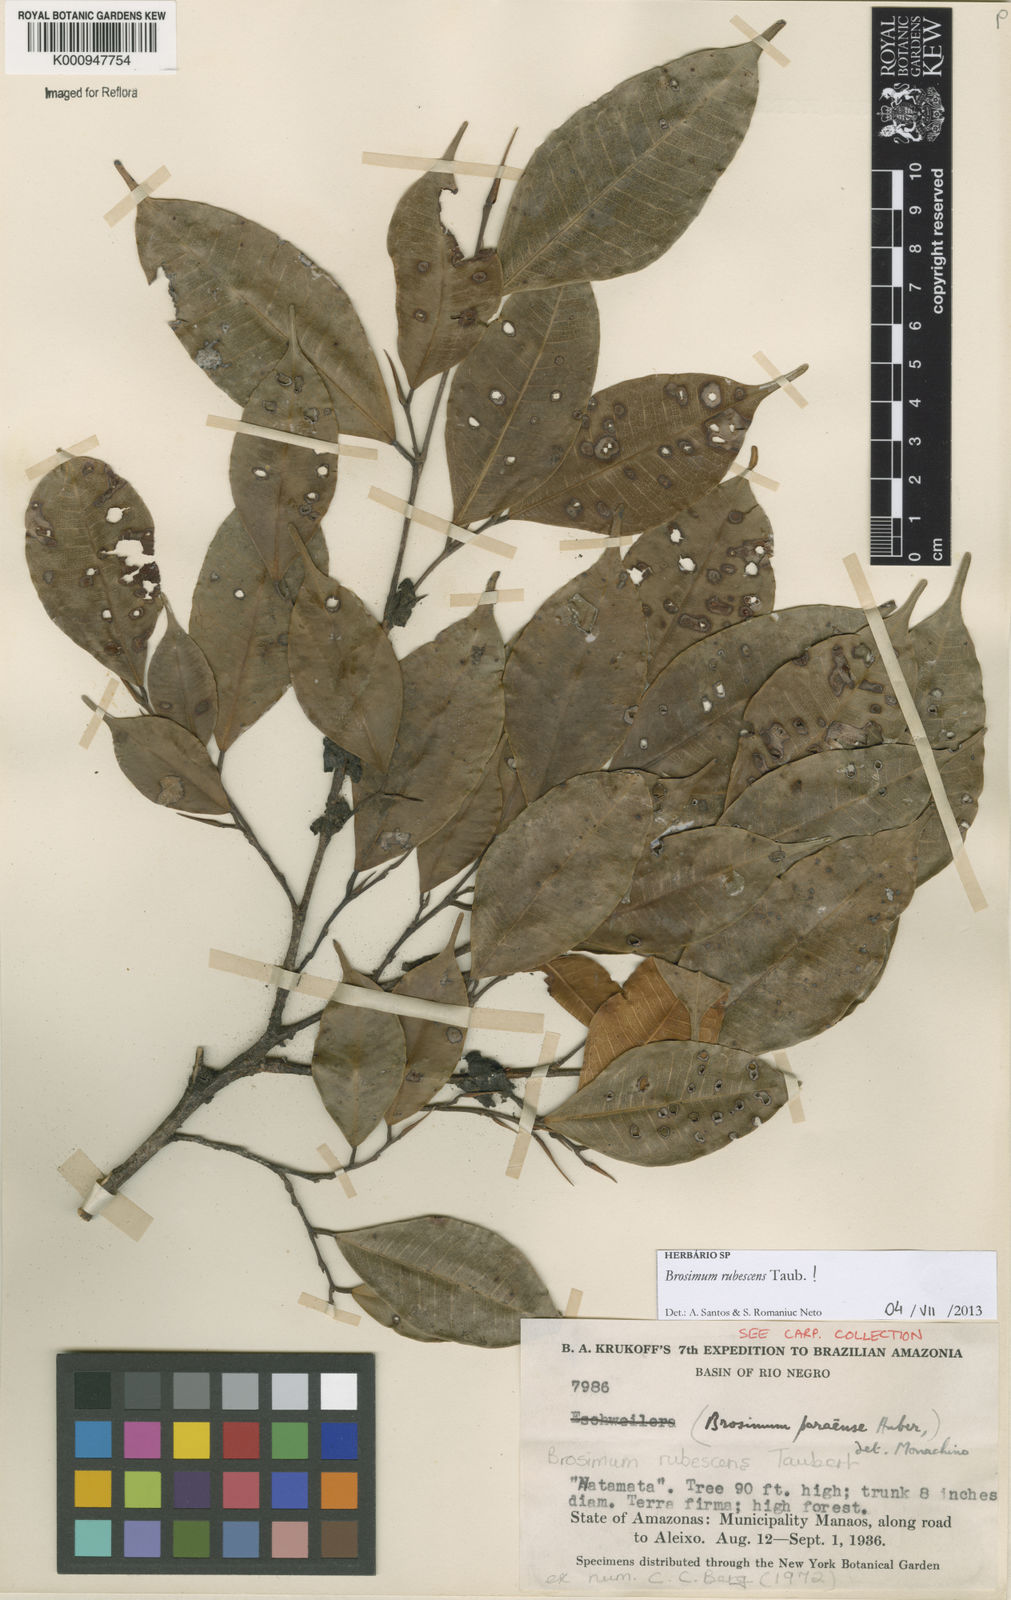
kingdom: Plantae
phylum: Tracheophyta
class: Magnoliopsida
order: Rosales
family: Moraceae
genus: Brosimum
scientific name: Brosimum rubescens
